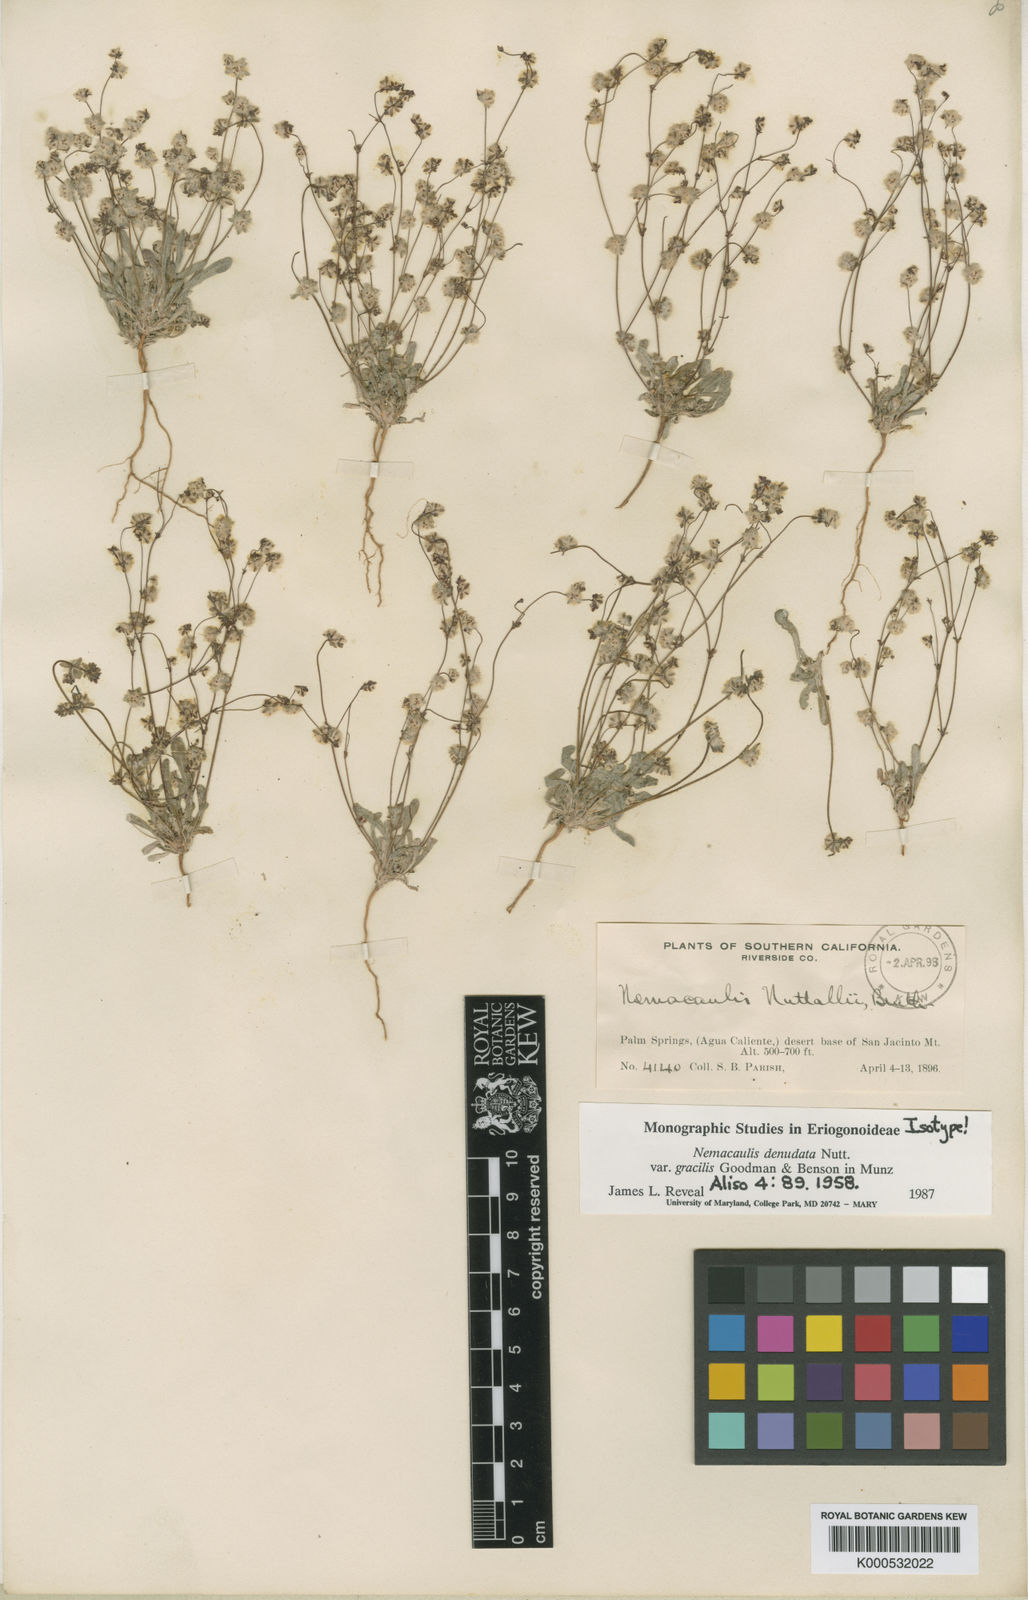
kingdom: Plantae
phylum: Tracheophyta
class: Magnoliopsida
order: Caryophyllales
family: Polygonaceae
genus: Nemacaulis
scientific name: Nemacaulis denudata
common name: Woolly-heads
